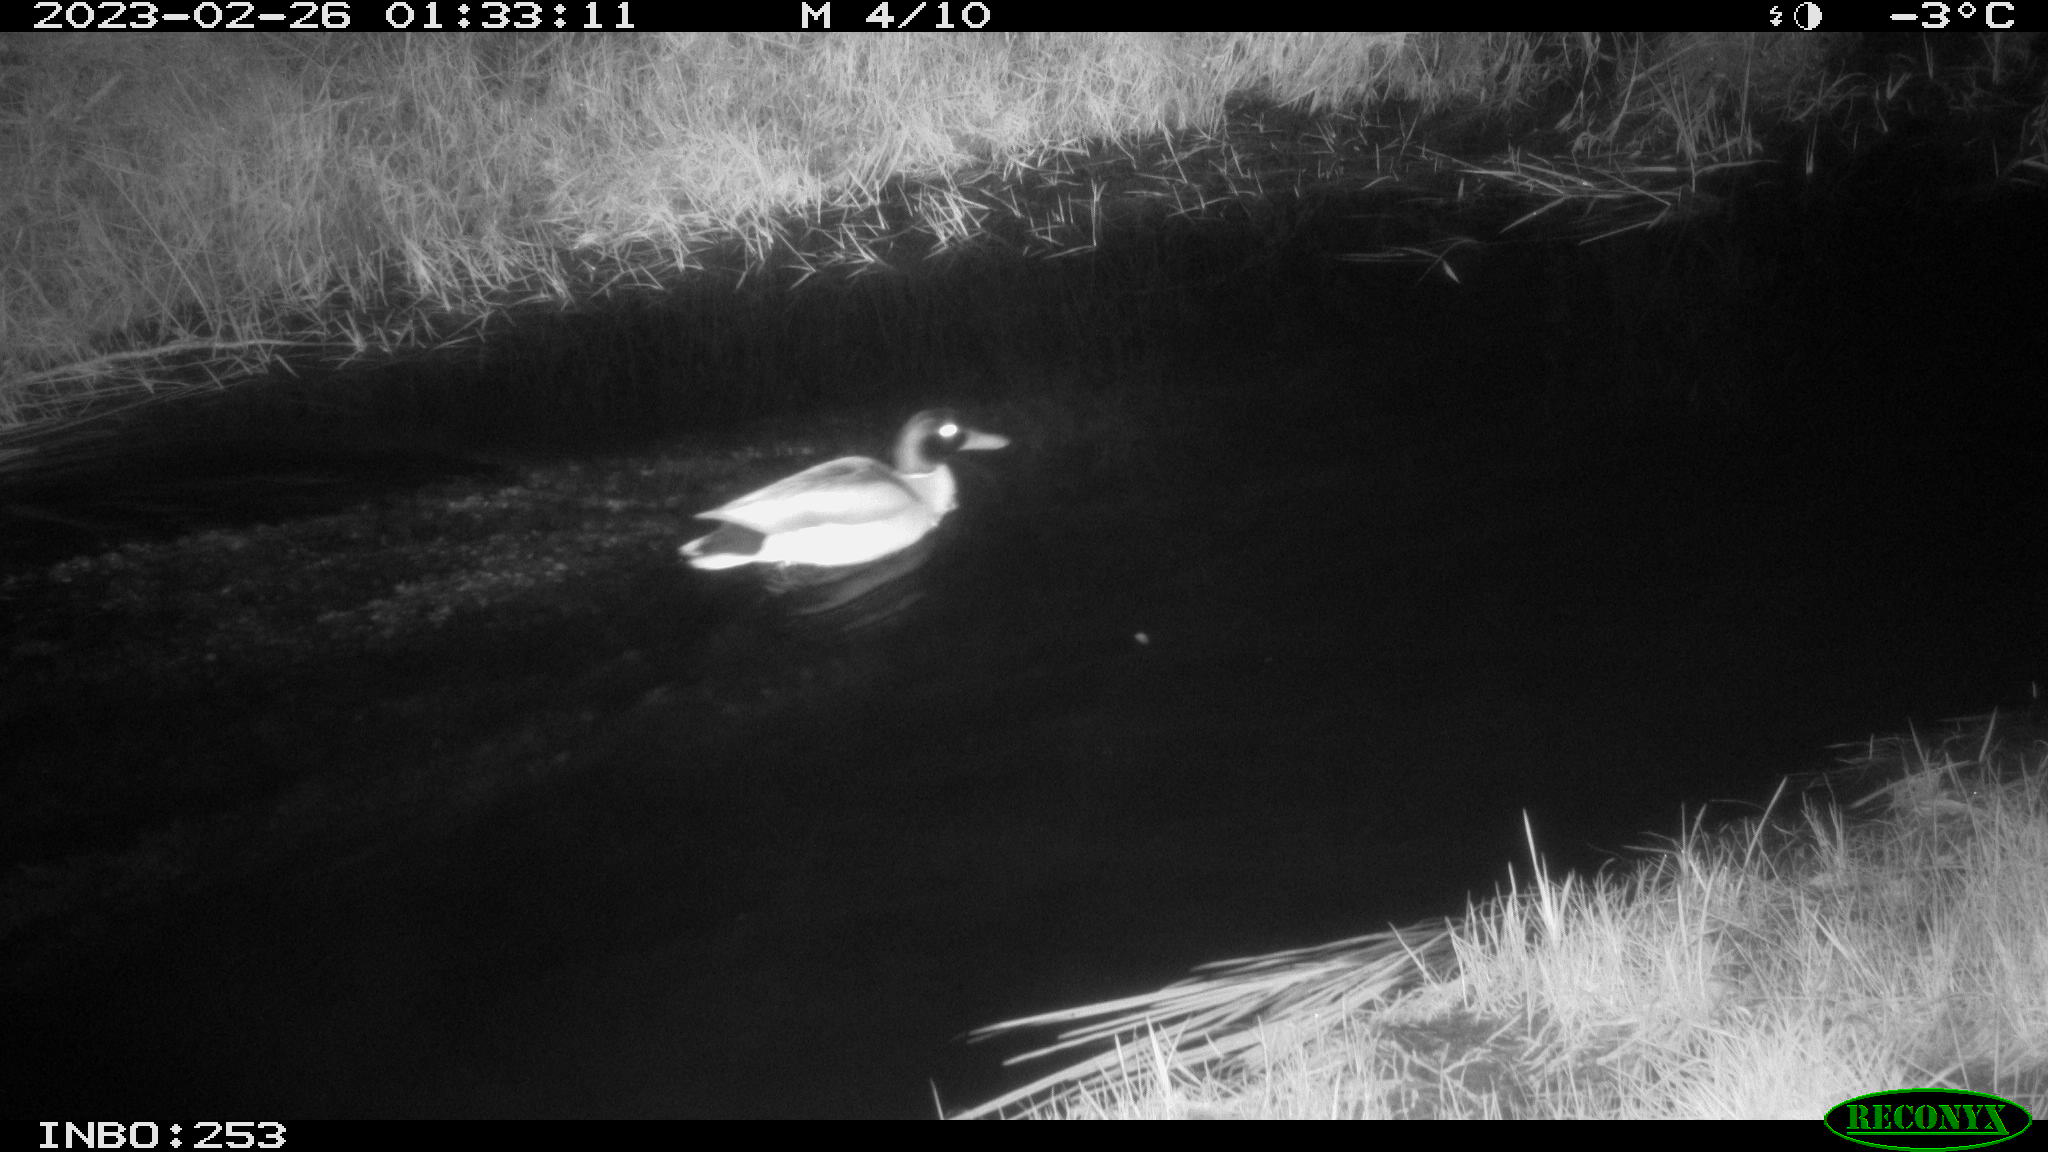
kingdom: Animalia
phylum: Chordata
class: Aves
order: Anseriformes
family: Anatidae
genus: Anas
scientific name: Anas
